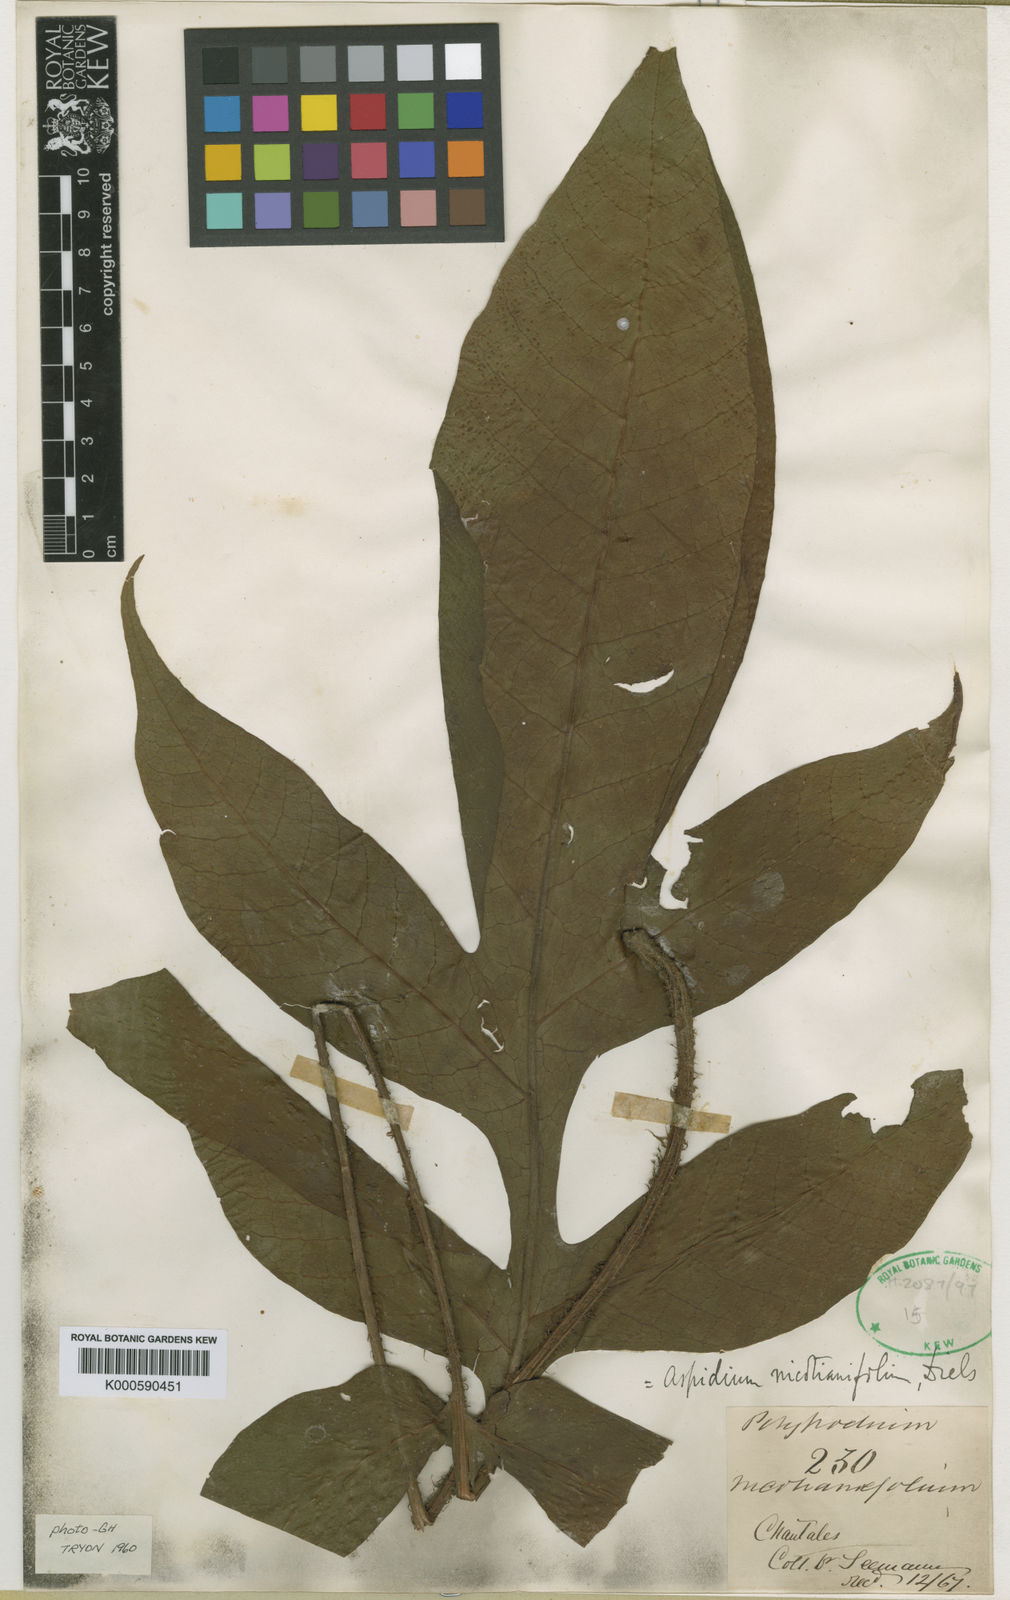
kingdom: Plantae
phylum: Tracheophyta
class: Polypodiopsida
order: Polypodiales
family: Tectariaceae
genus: Hypoderris
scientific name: Hypoderris nicotianifolia
